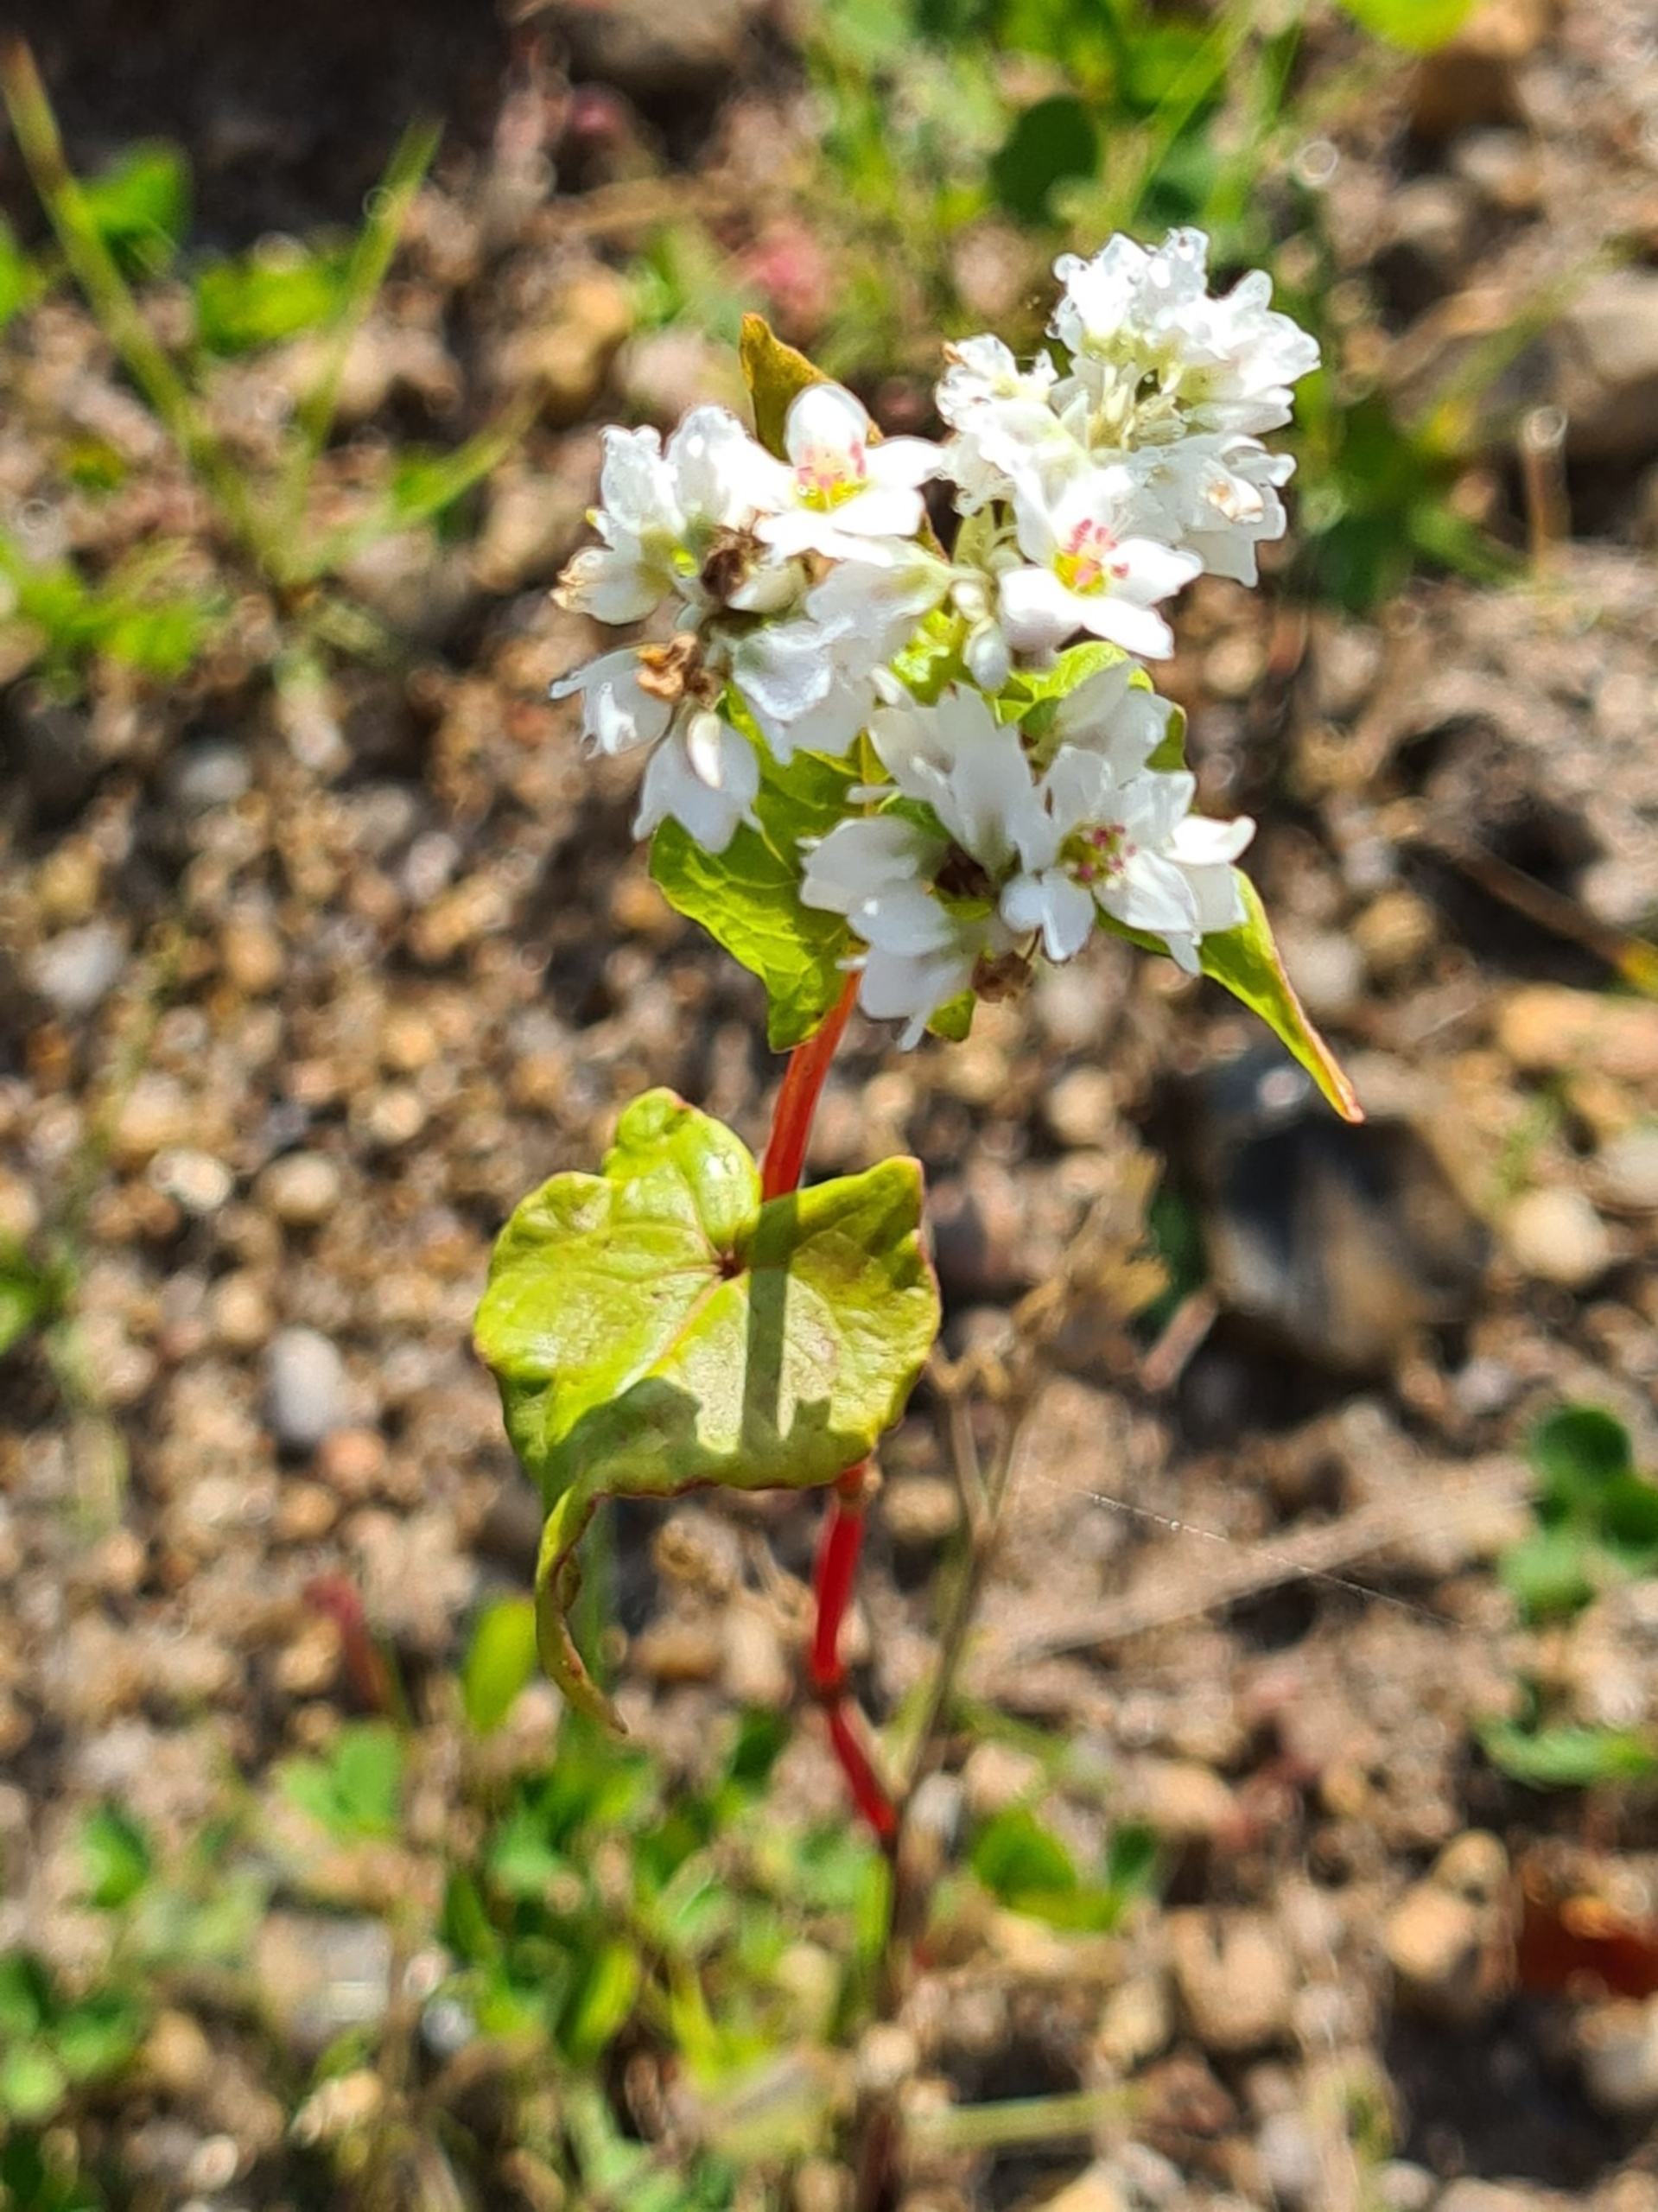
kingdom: Plantae
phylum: Tracheophyta
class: Magnoliopsida
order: Caryophyllales
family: Polygonaceae
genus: Fagopyrum
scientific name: Fagopyrum esculentum
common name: Almindelig boghvede
